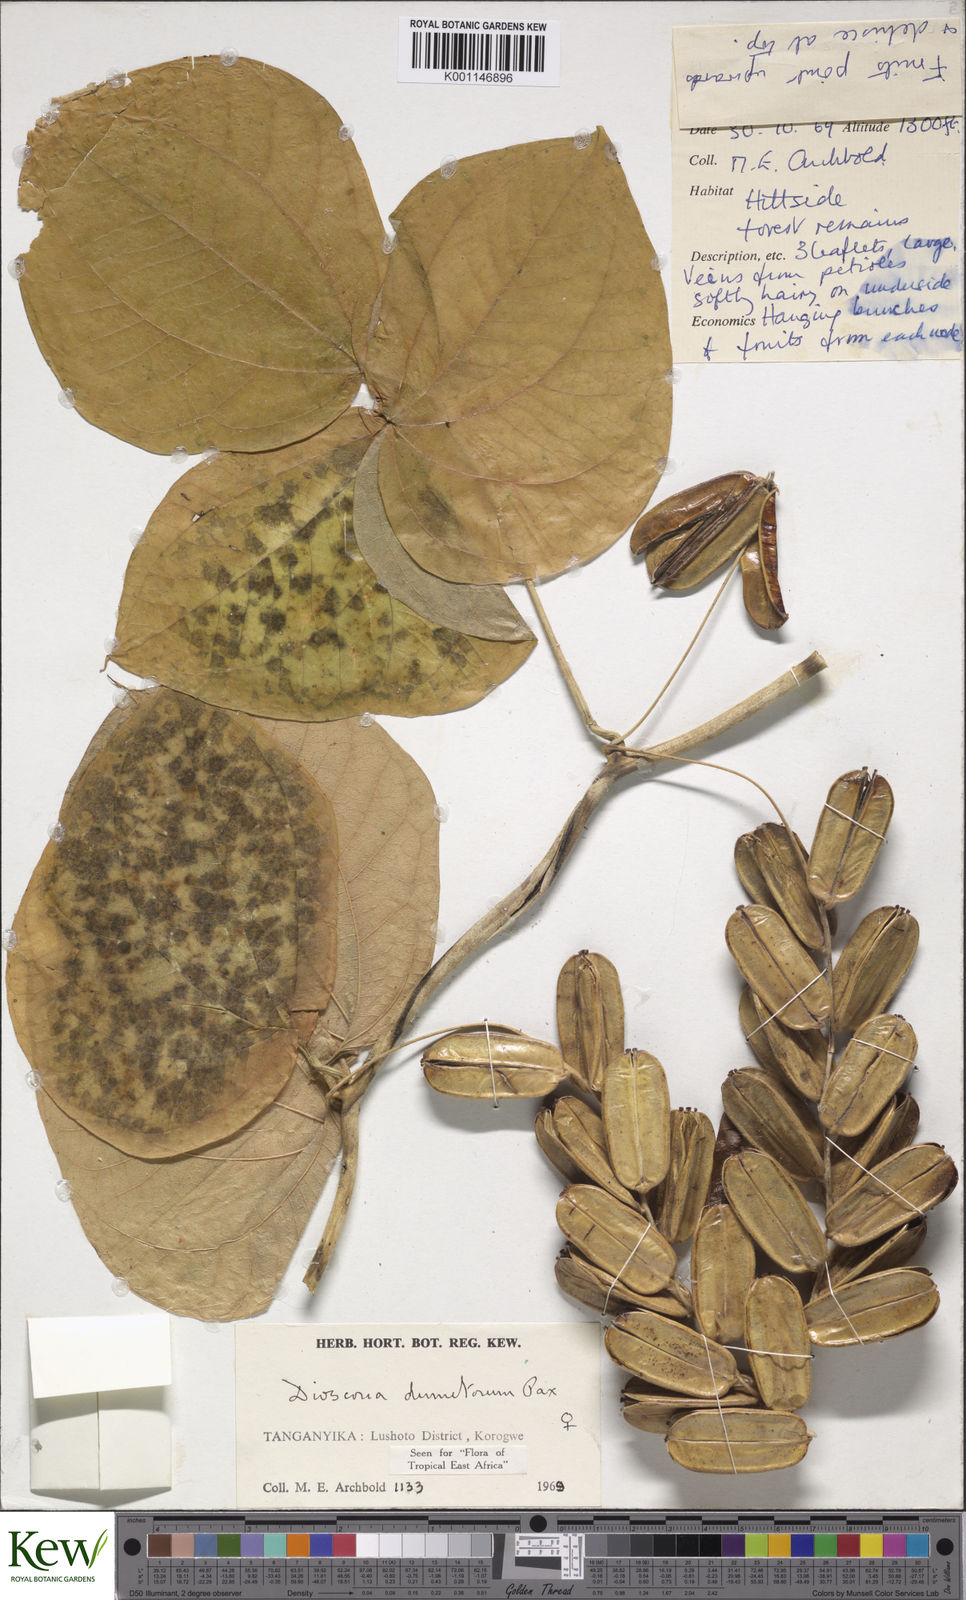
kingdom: Plantae
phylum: Tracheophyta
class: Liliopsida
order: Dioscoreales
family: Dioscoreaceae
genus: Dioscorea
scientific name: Dioscorea dumetorum
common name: African bitter yam
